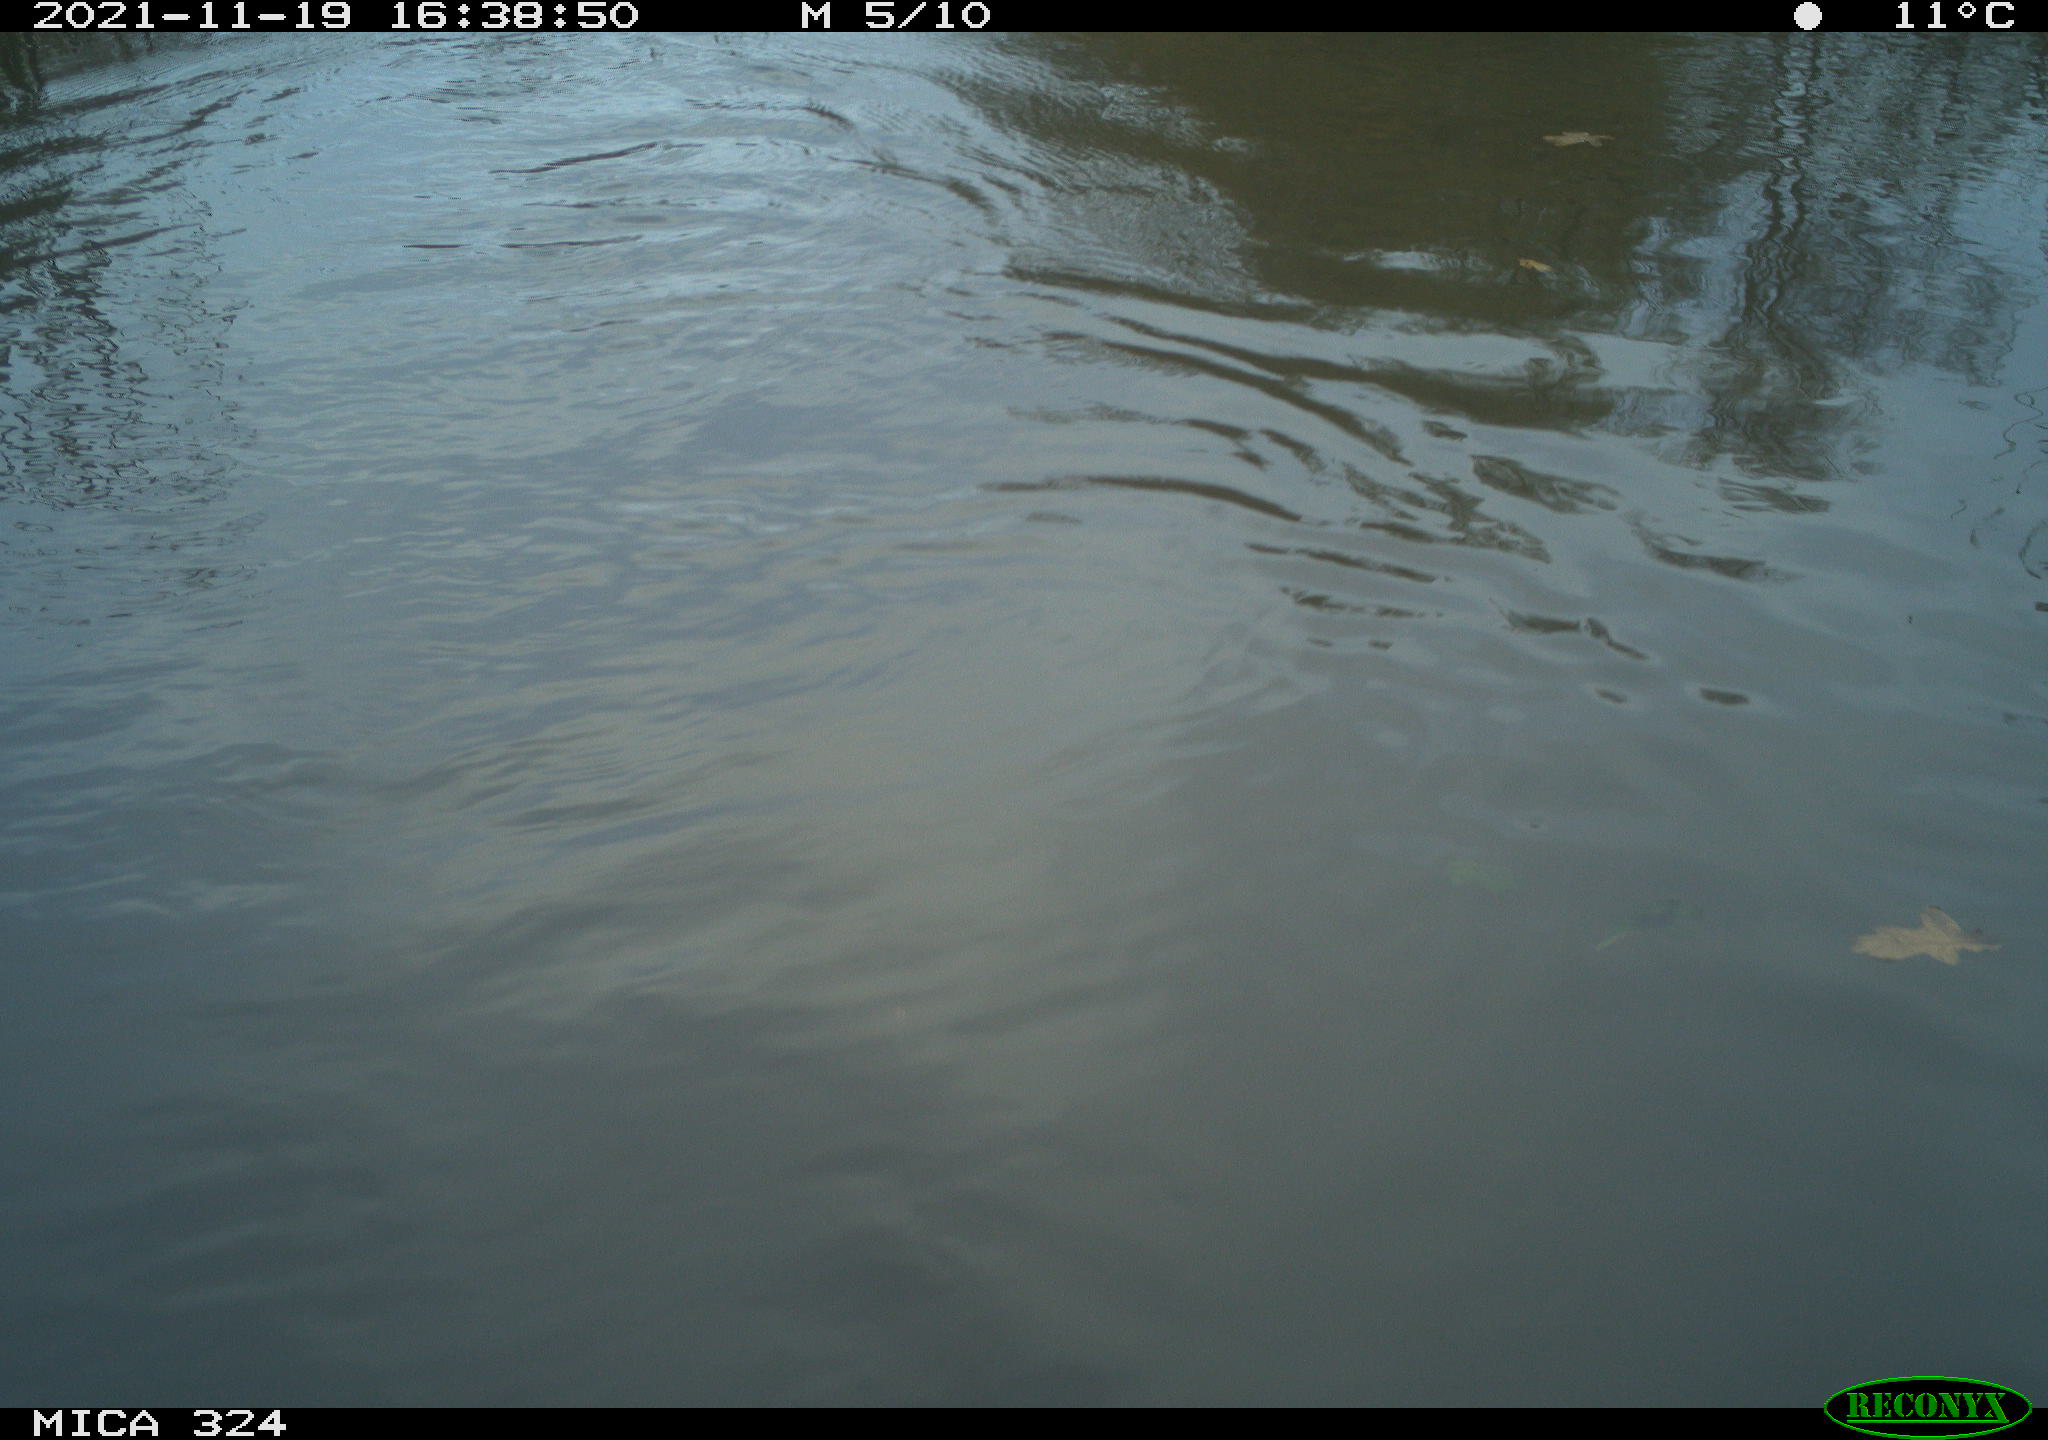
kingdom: Animalia
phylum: Chordata
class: Mammalia
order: Rodentia
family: Cricetidae
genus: Ondatra
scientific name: Ondatra zibethicus
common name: Muskrat
